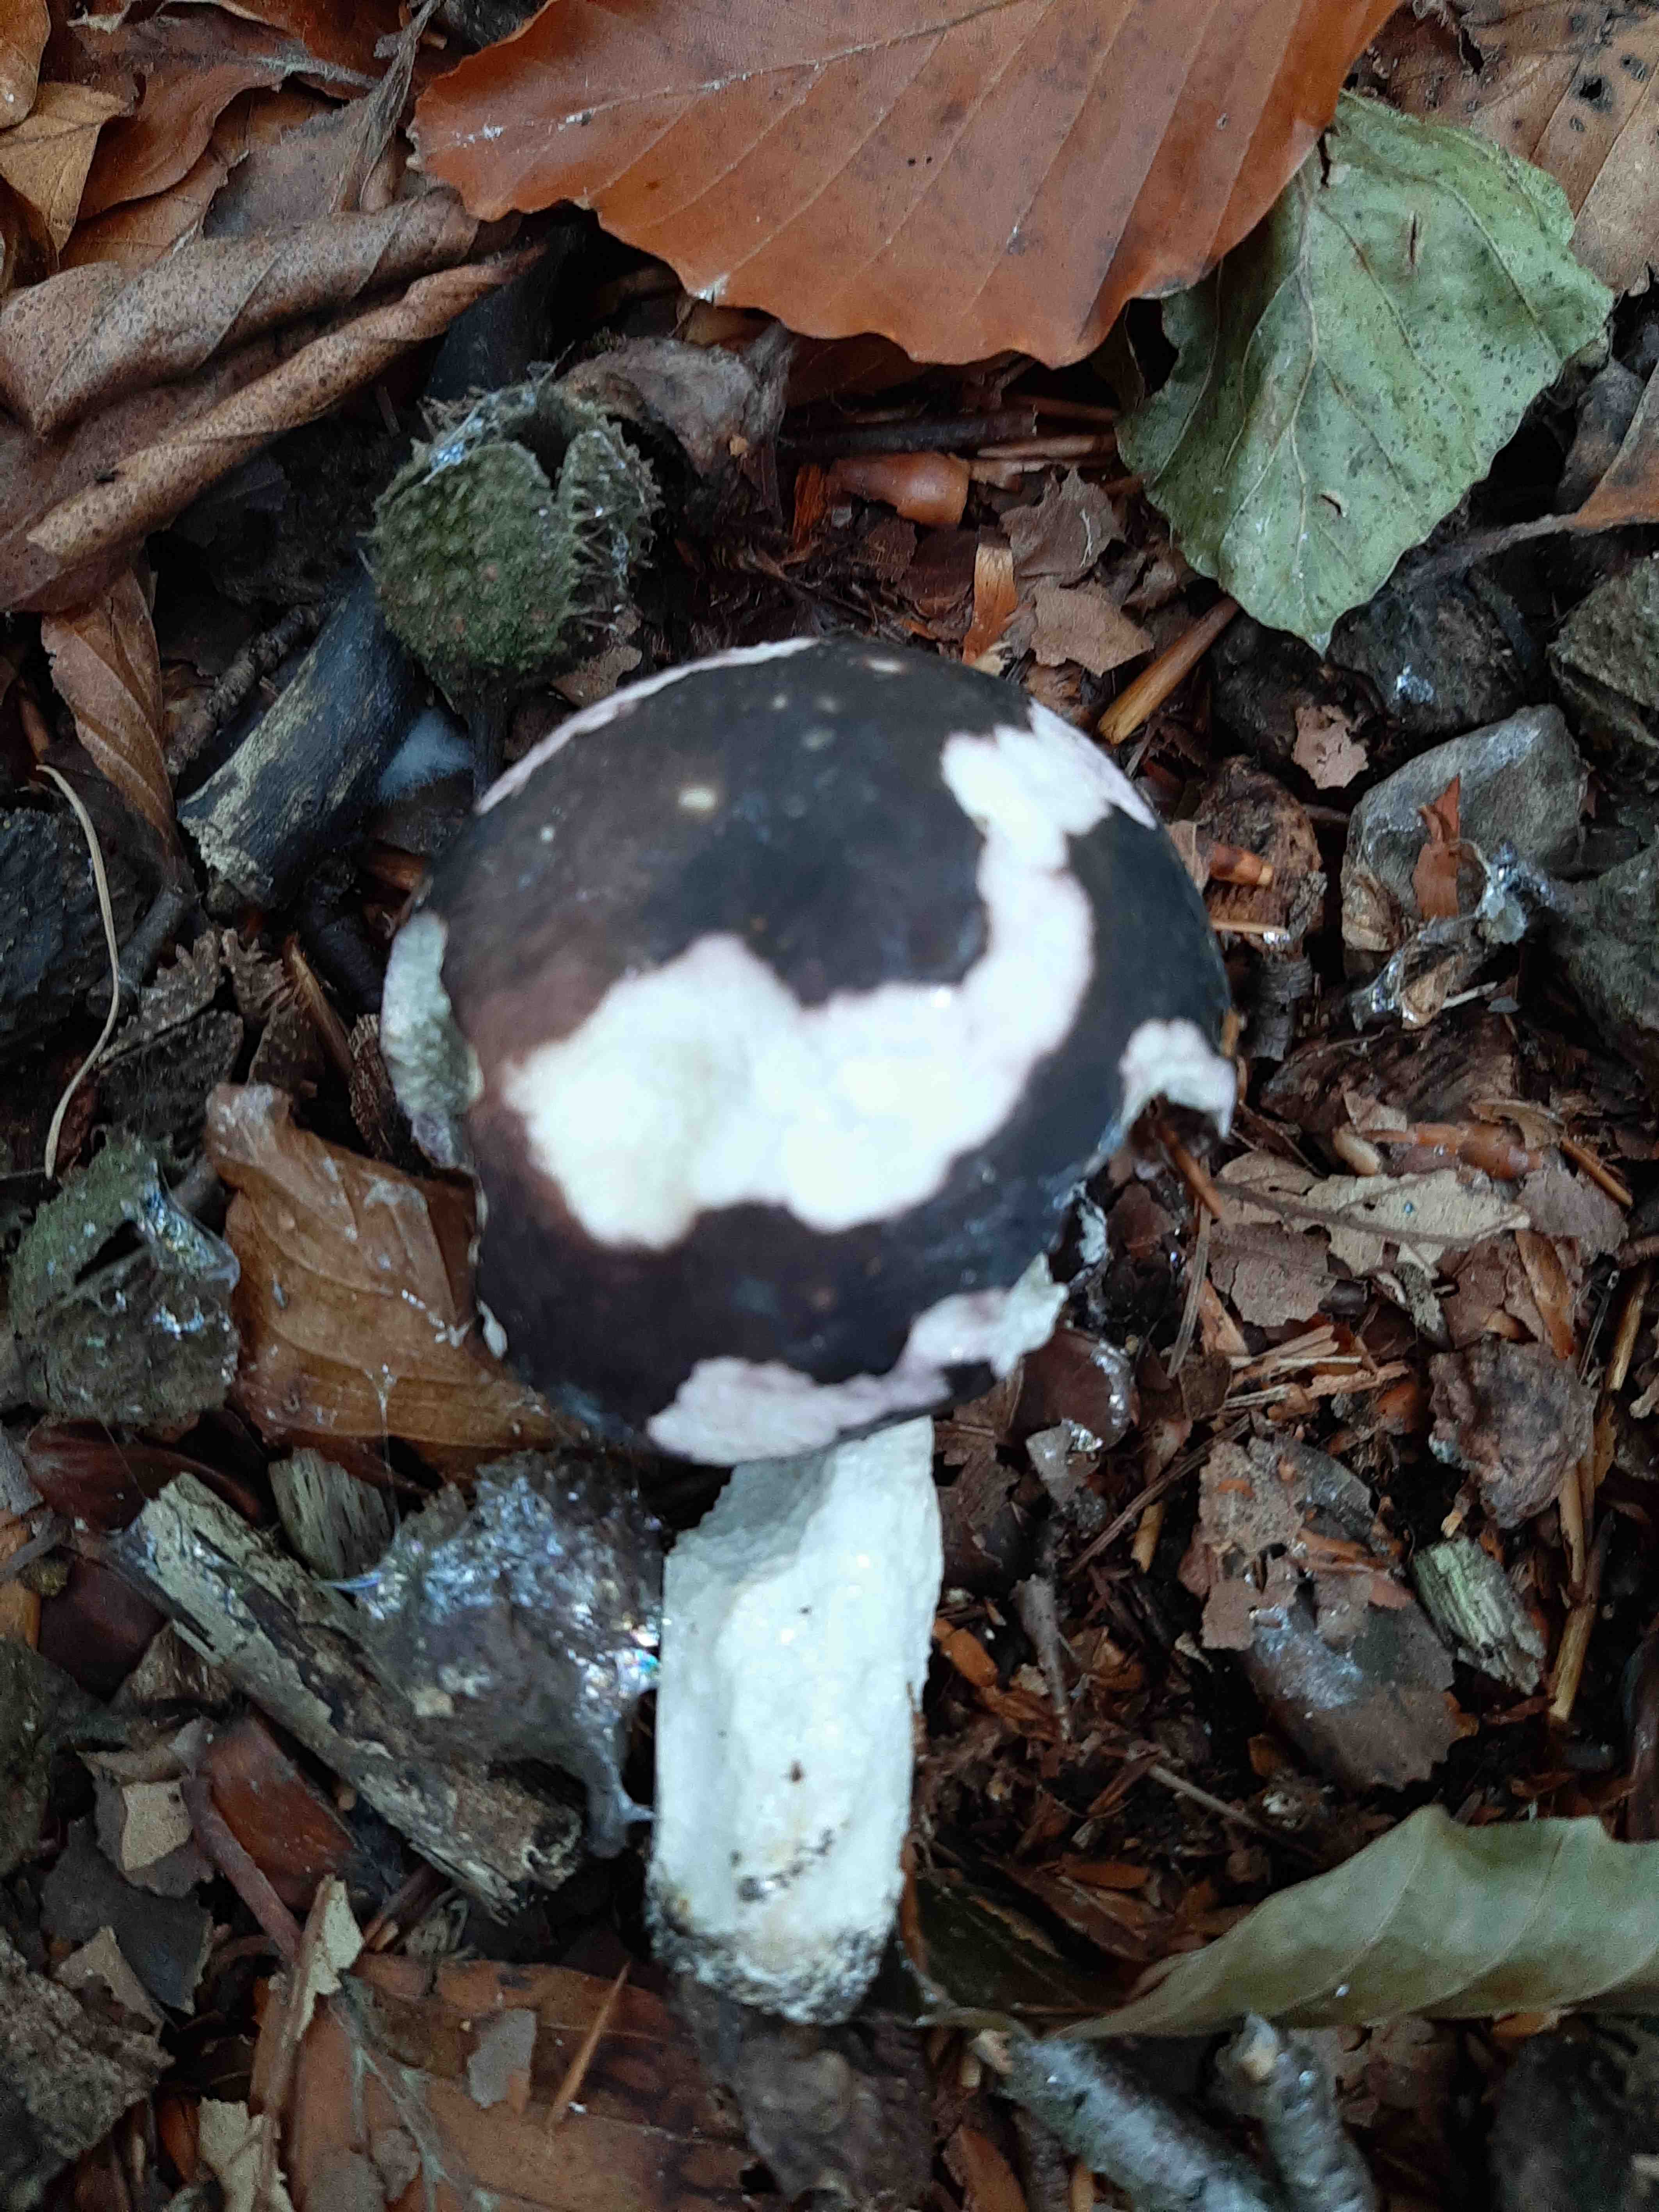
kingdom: Fungi
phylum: Basidiomycota
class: Agaricomycetes
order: Russulales
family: Russulaceae
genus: Russula
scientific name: Russula cyanoxantha
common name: broget skørhat
